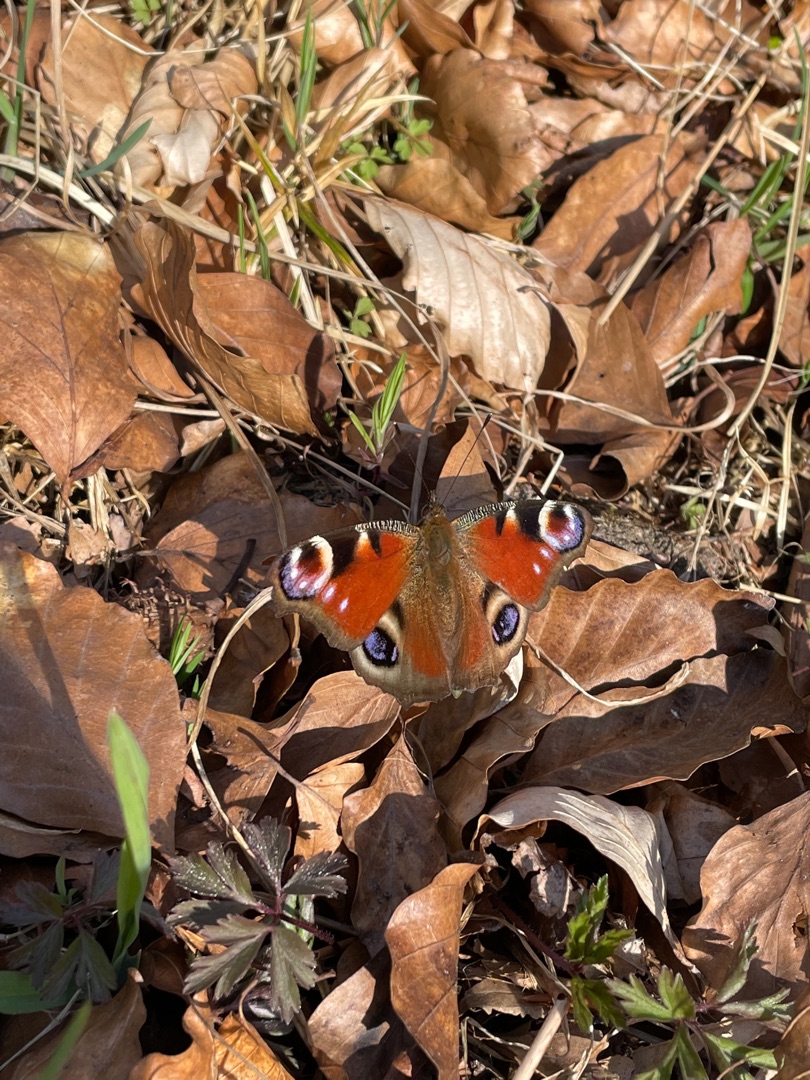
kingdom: Animalia
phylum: Arthropoda
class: Insecta
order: Lepidoptera
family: Nymphalidae
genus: Aglais
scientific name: Aglais io
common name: Dagpåfugleøje
